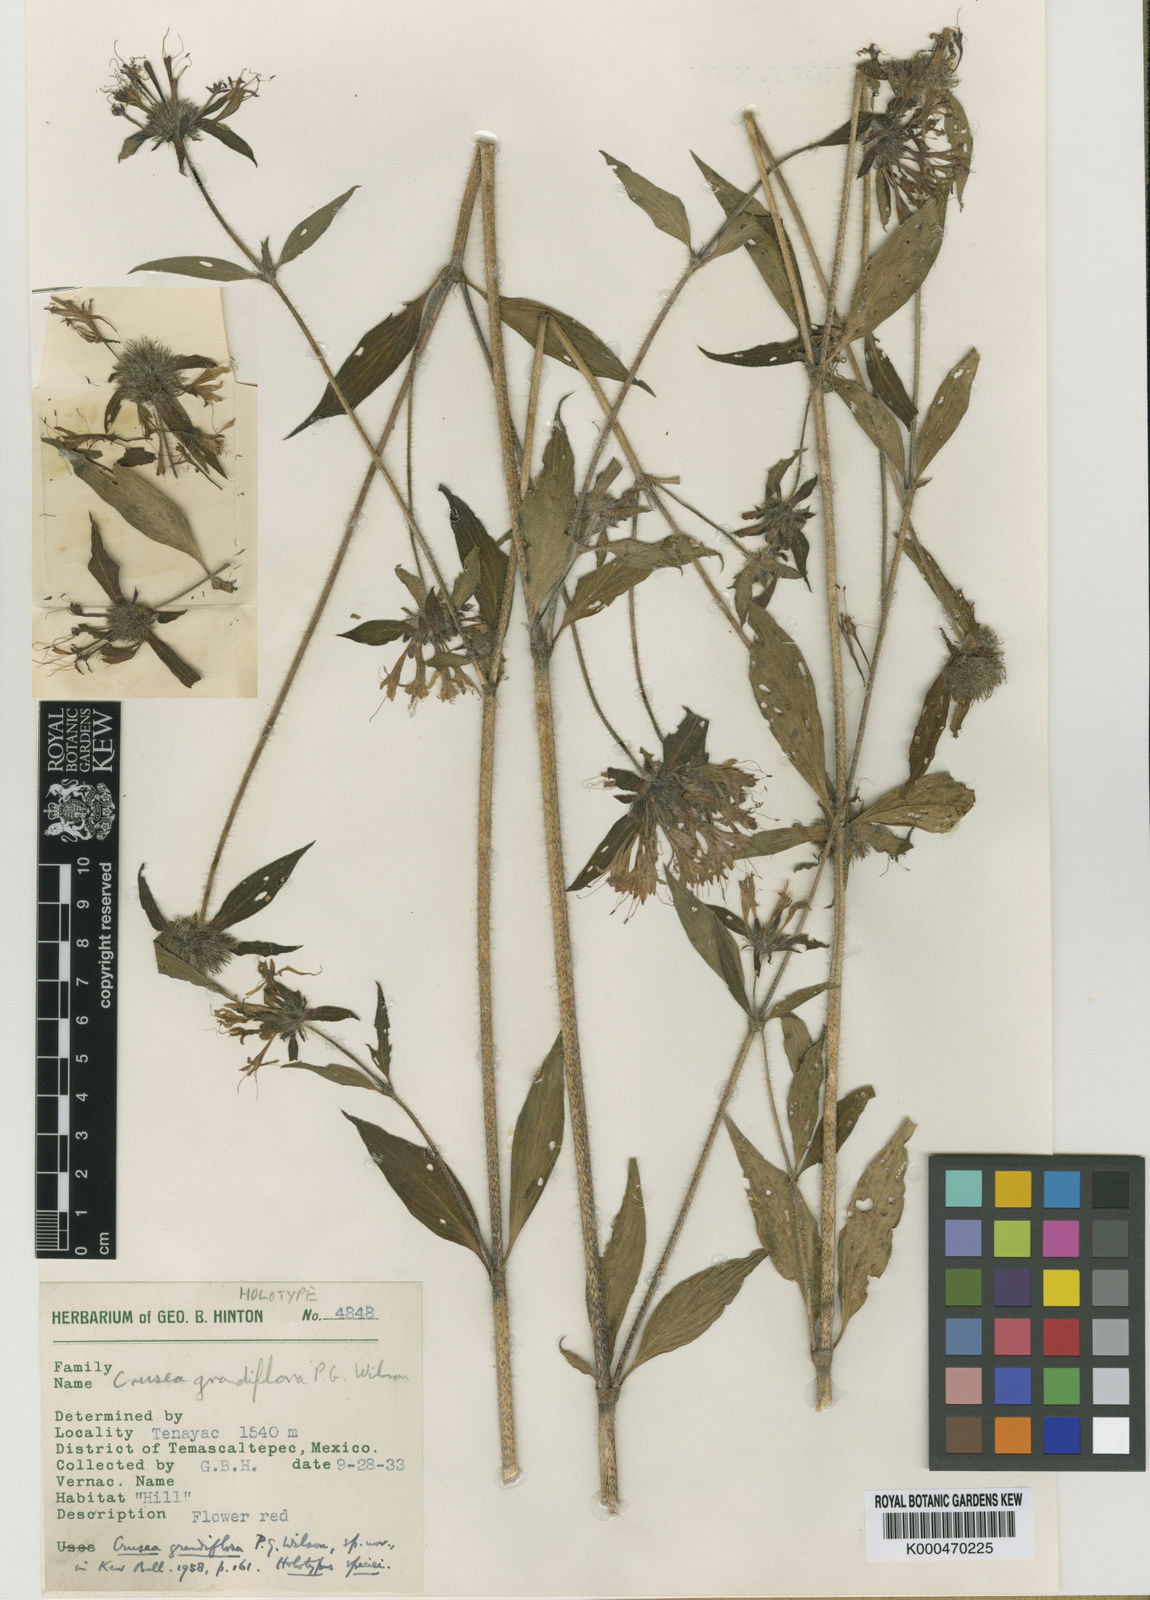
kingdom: Plantae
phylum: Tracheophyta
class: Magnoliopsida
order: Gentianales
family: Rubiaceae
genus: Crusea
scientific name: Crusea hispida
